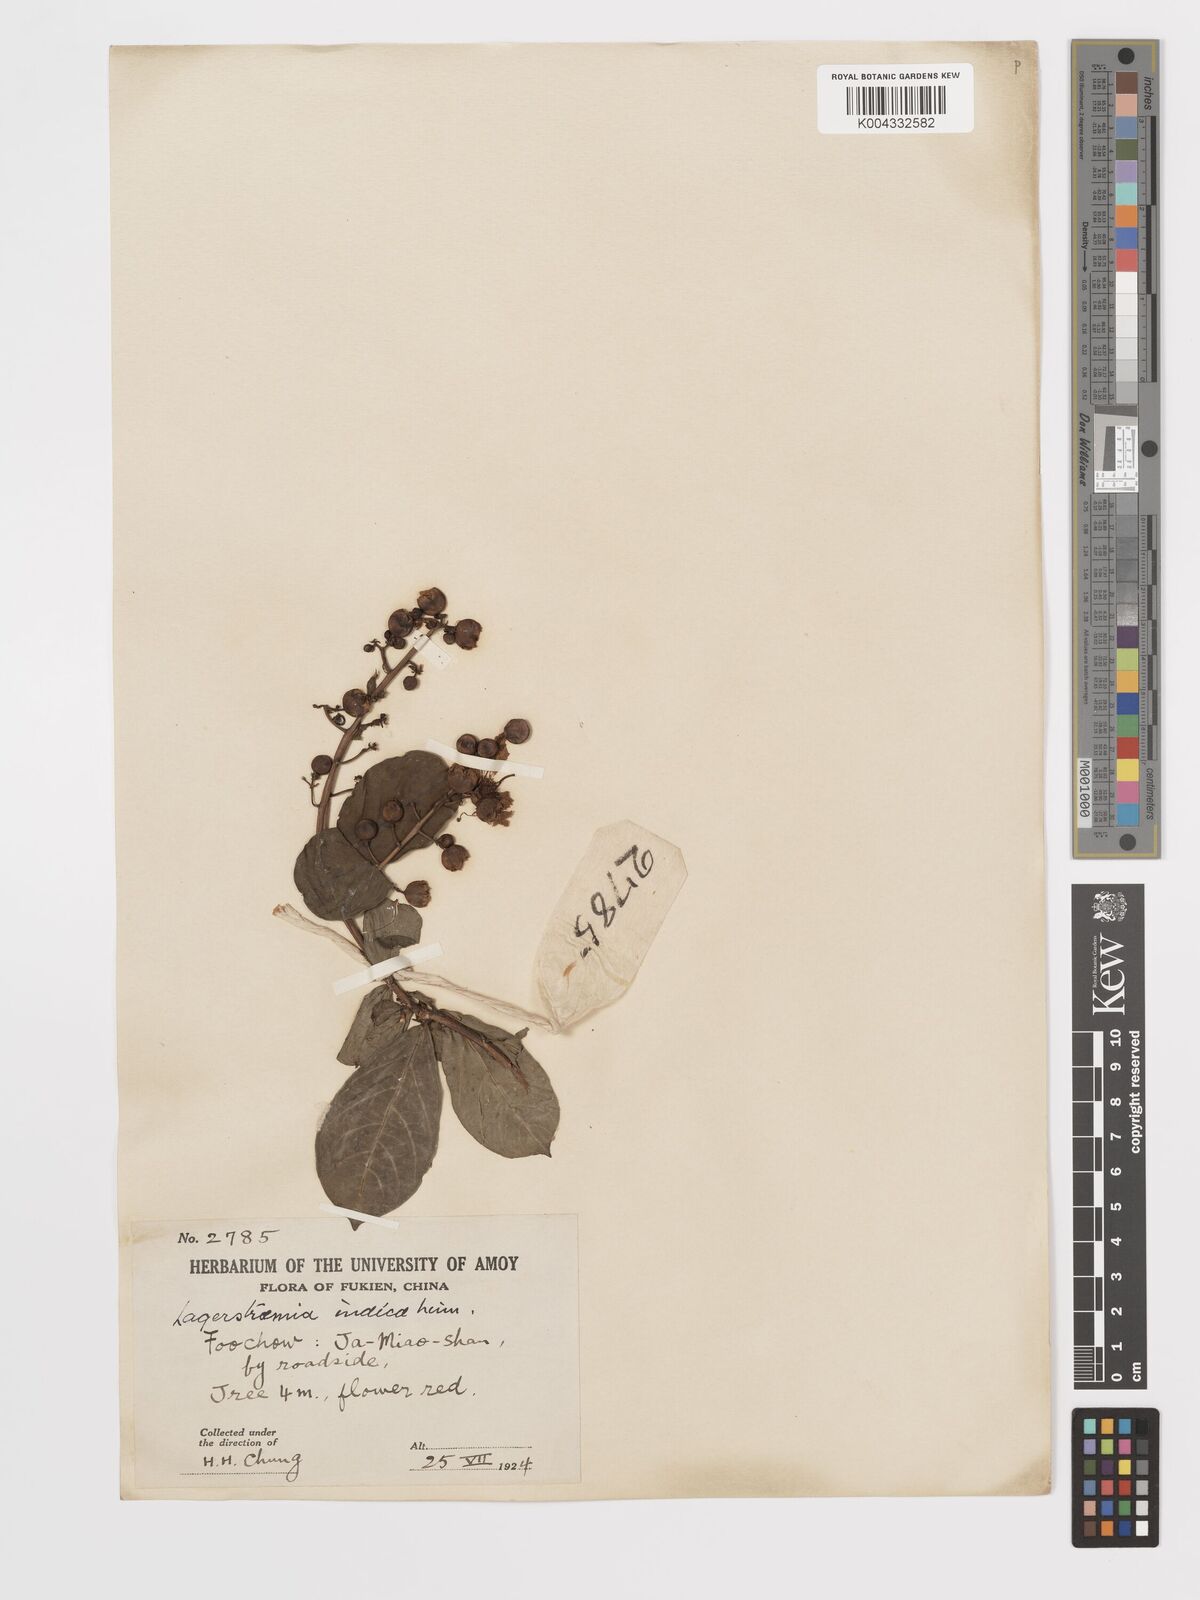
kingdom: Plantae
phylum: Tracheophyta
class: Magnoliopsida
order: Myrtales
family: Lythraceae
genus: Lagerstroemia
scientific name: Lagerstroemia indica
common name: Crape-myrtle
